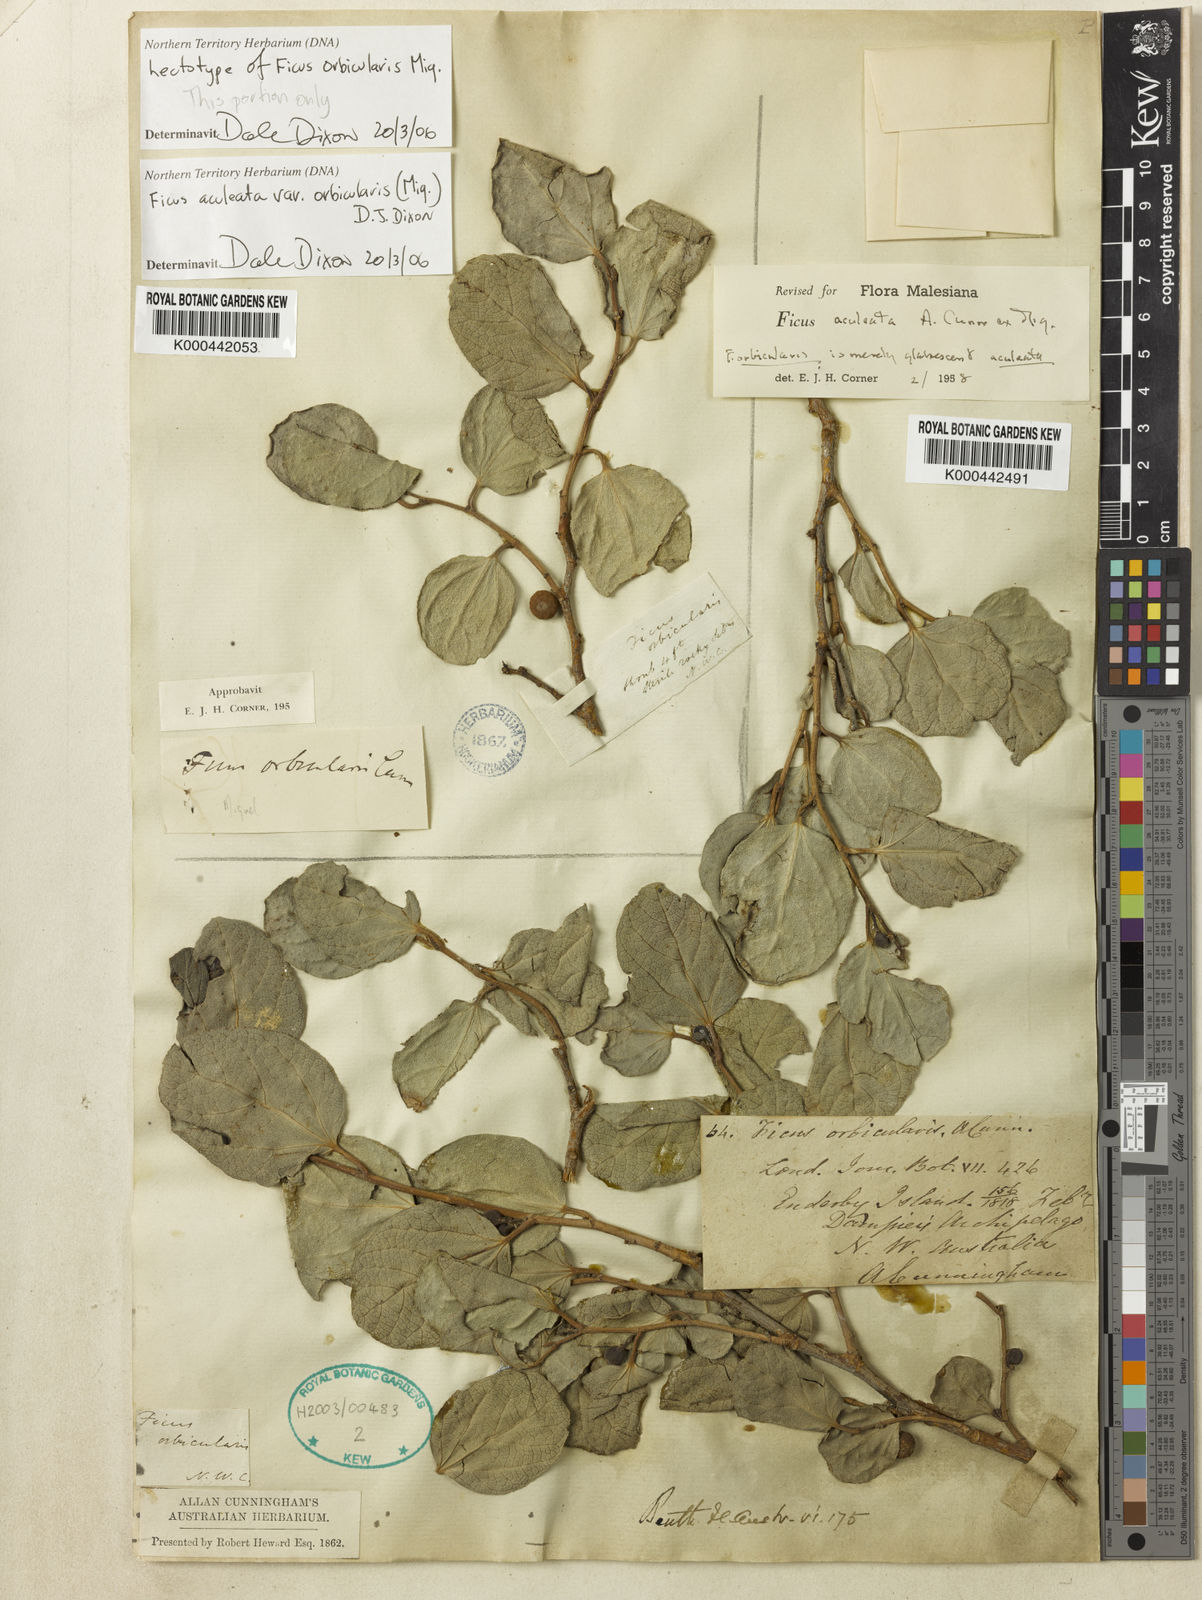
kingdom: Plantae
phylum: Tracheophyta
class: Magnoliopsida
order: Rosales
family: Moraceae
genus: Ficus
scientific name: Ficus opposita
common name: Figwood
